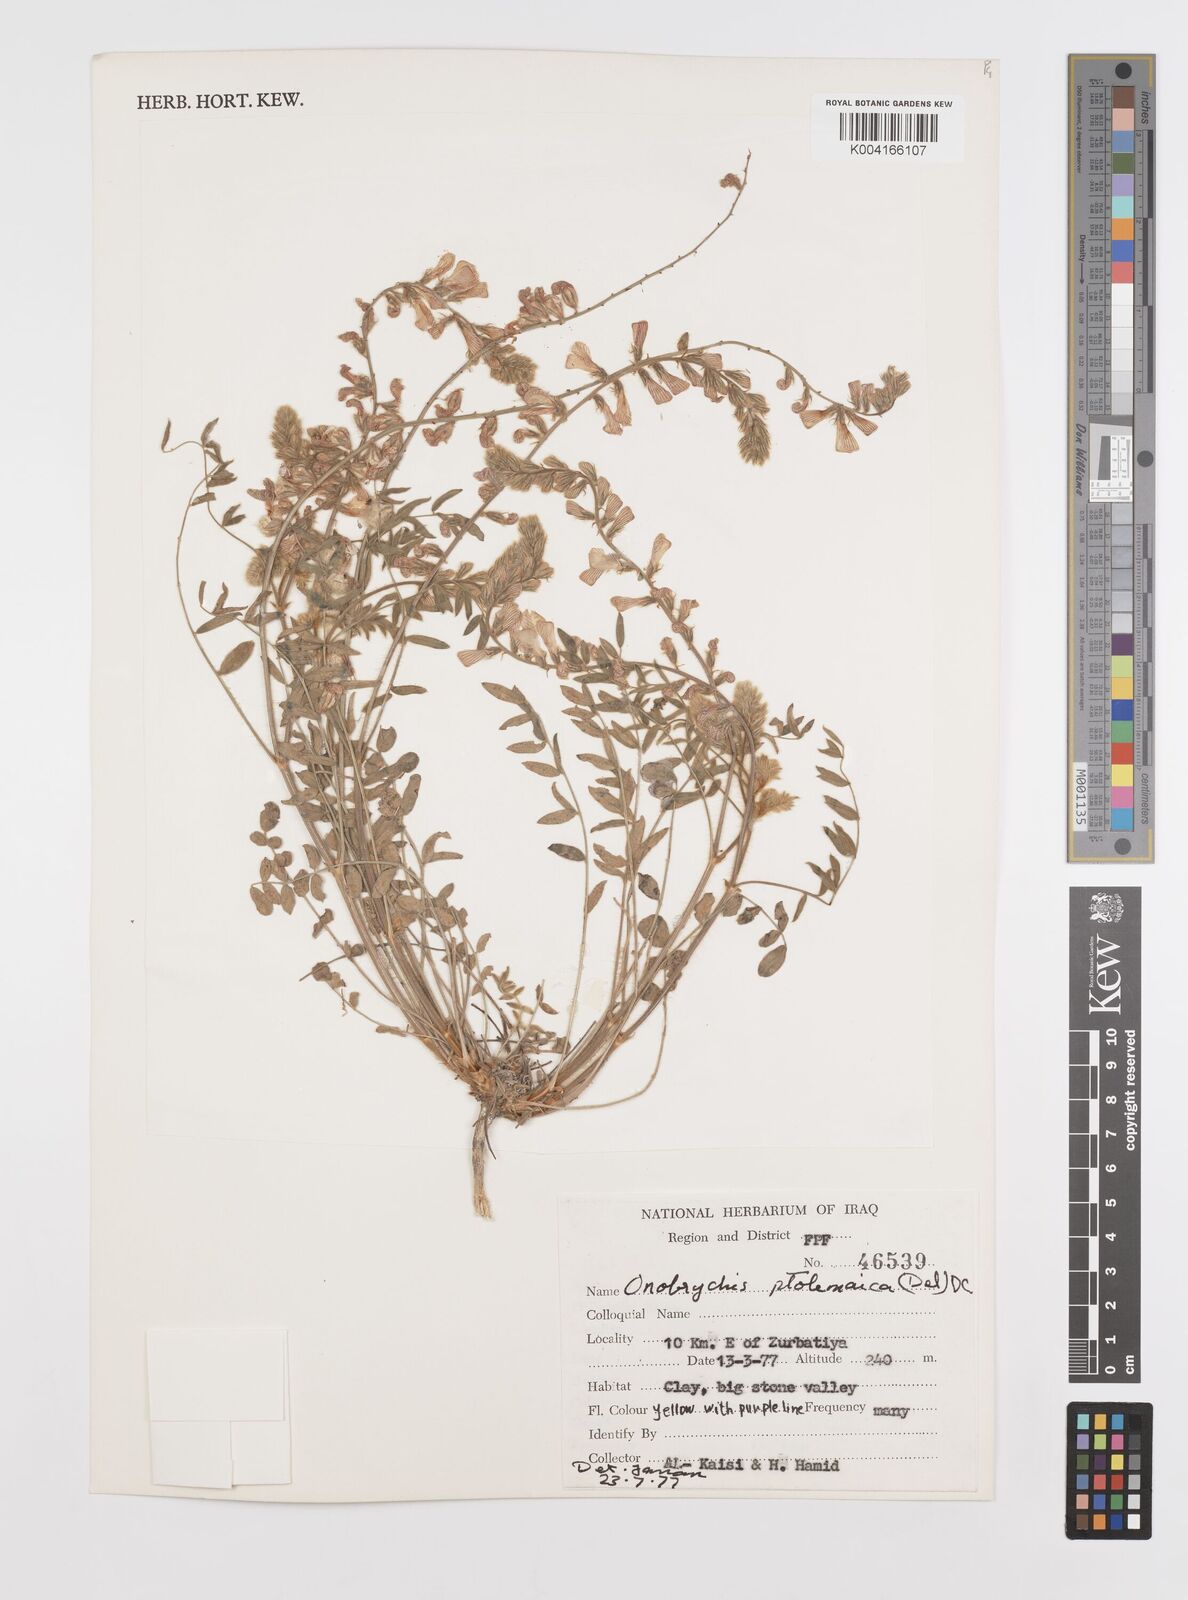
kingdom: Plantae
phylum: Tracheophyta
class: Magnoliopsida
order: Fabales
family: Fabaceae
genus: Onobrychis
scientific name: Onobrychis ptolemaica
